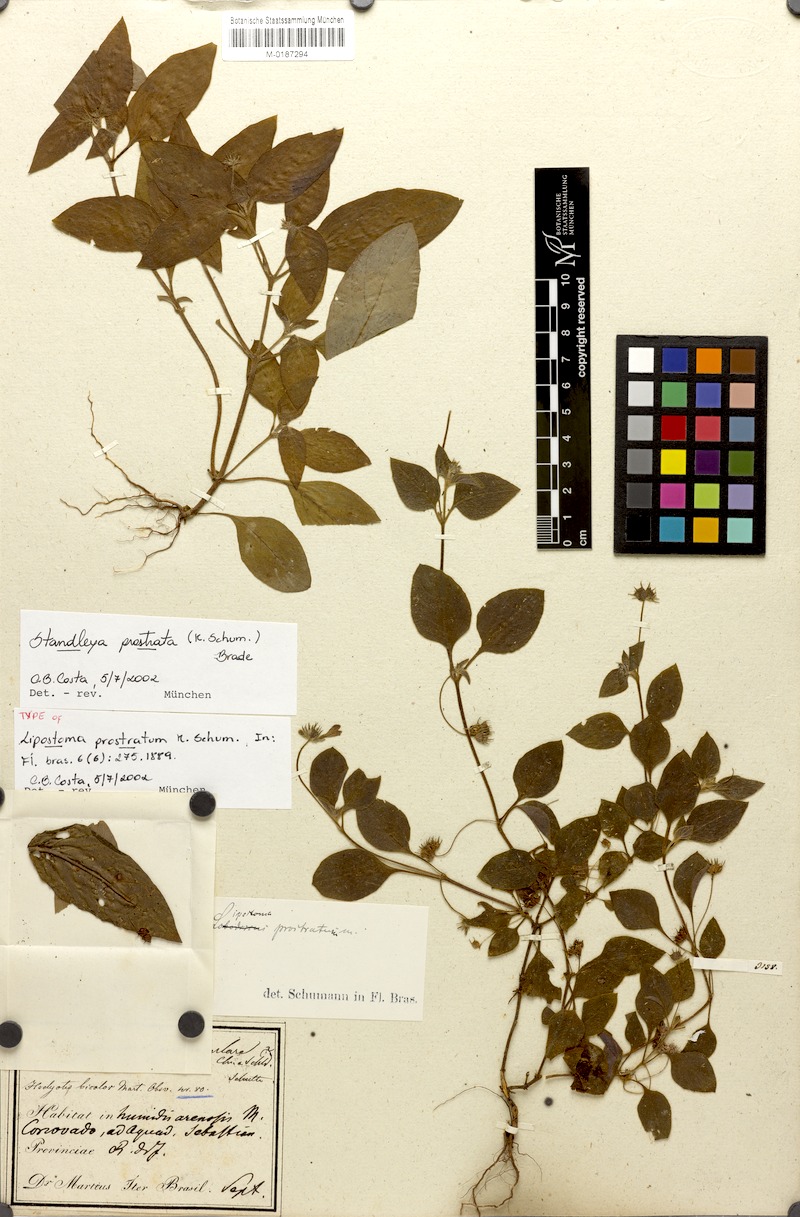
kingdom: Plantae
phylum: Tracheophyta
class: Magnoliopsida
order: Gentianales
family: Rubiaceae
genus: Standleya
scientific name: Standleya prostrata
